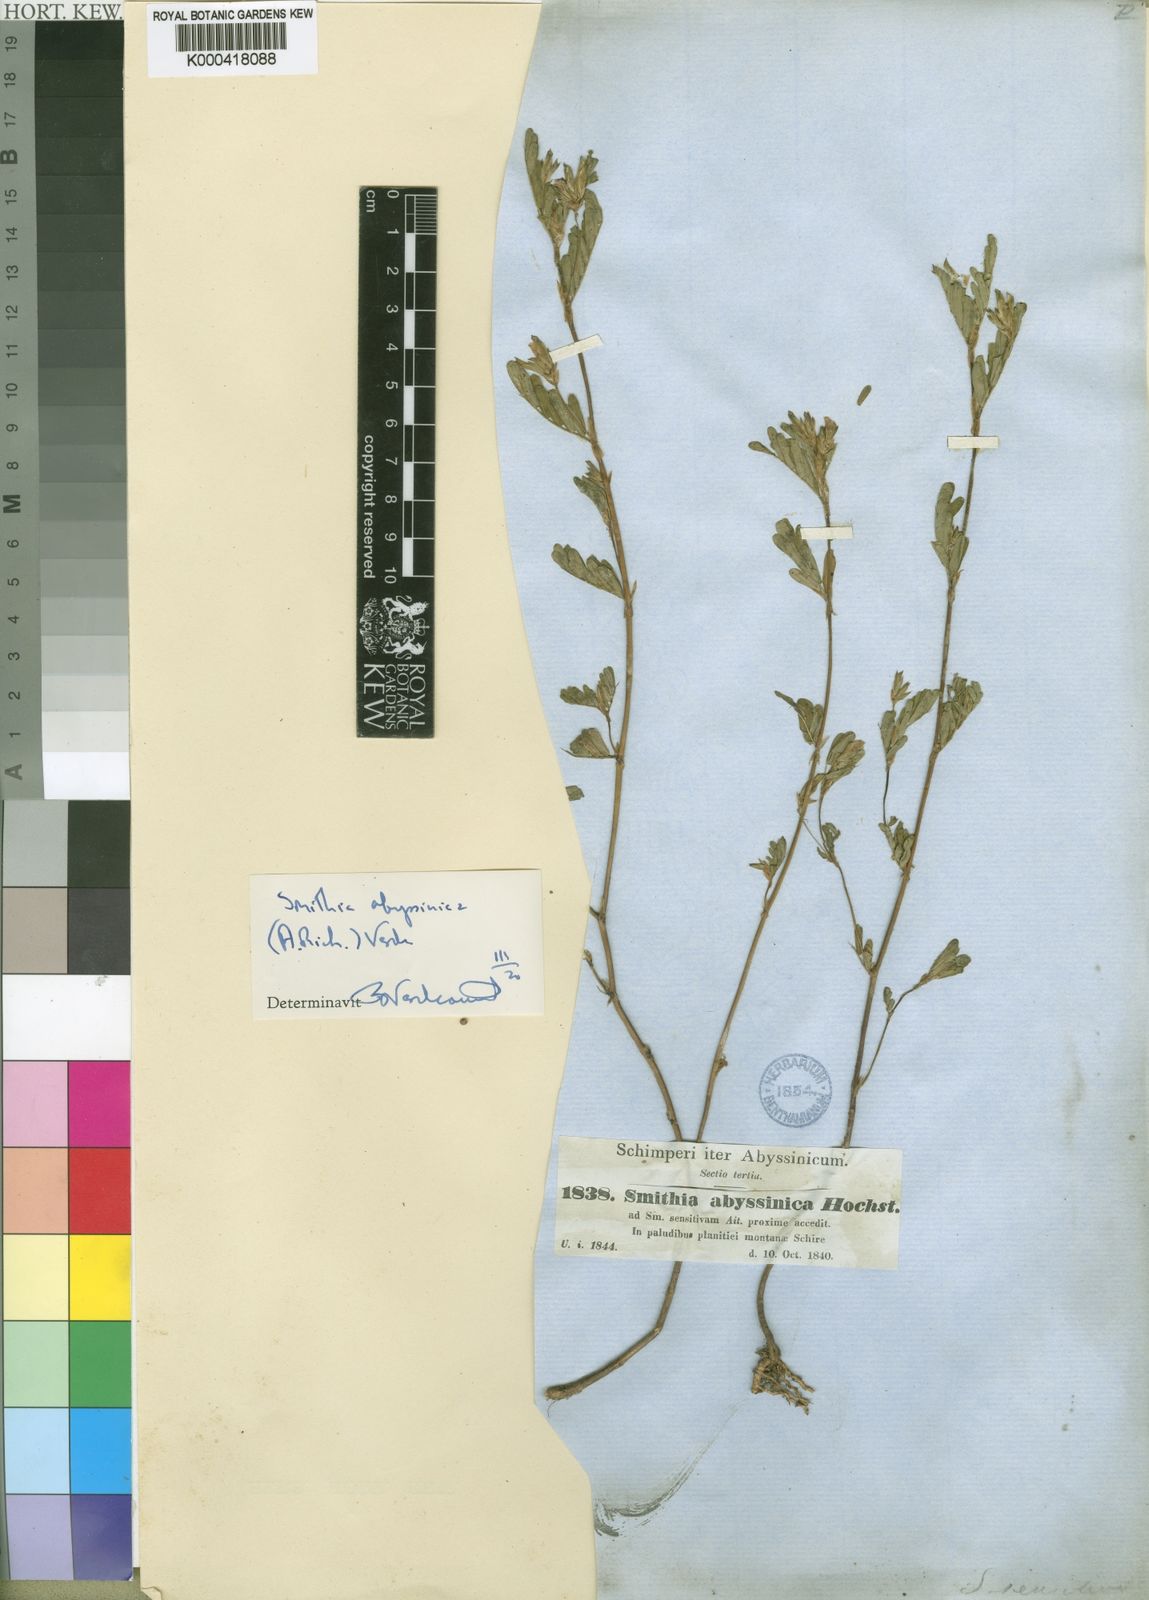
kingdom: Plantae
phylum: Tracheophyta
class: Magnoliopsida
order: Fabales
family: Fabaceae
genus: Smithia
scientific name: Smithia abyssinica
